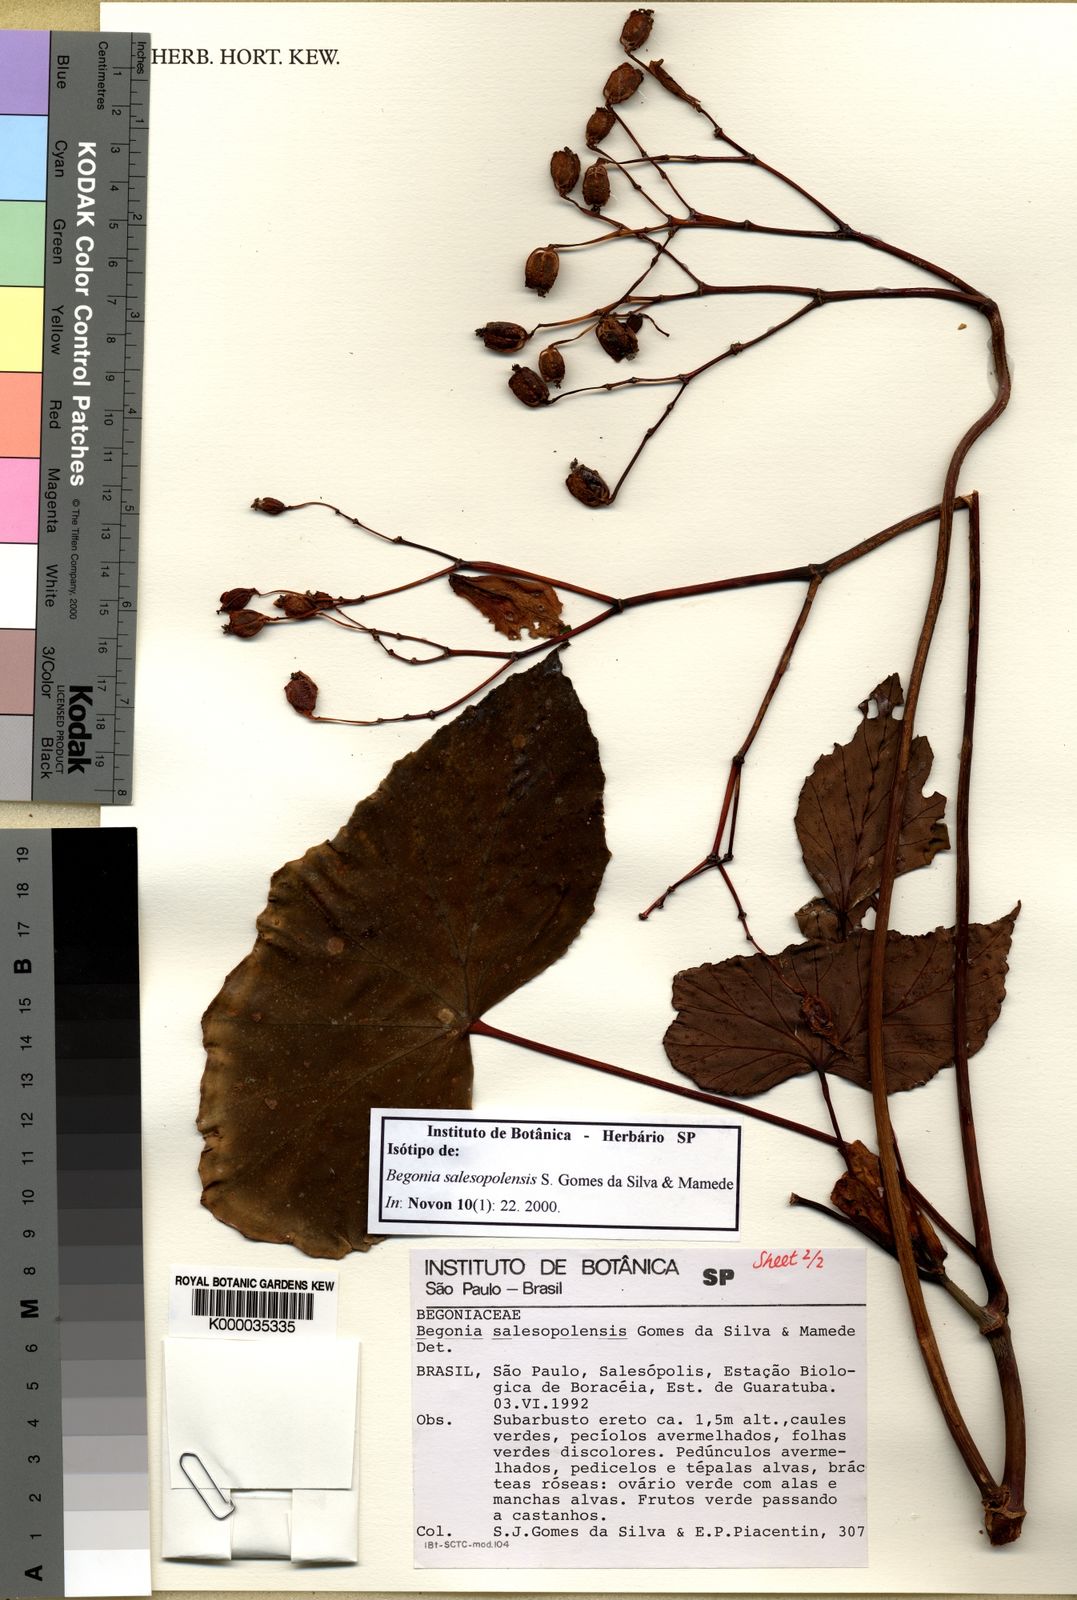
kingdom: Plantae
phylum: Tracheophyta
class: Magnoliopsida
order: Cucurbitales
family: Begoniaceae
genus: Begonia
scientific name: Begonia salesopolensis
